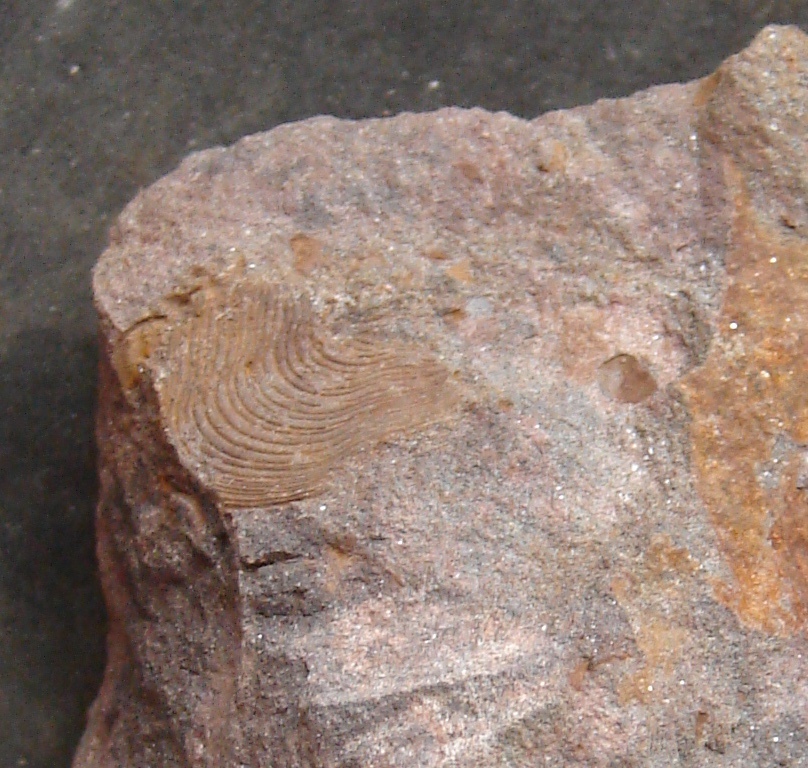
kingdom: Animalia
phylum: Mollusca
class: Bivalvia
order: Carditida
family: Cardiniidae
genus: Cypricardinia
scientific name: Cypricardinia
